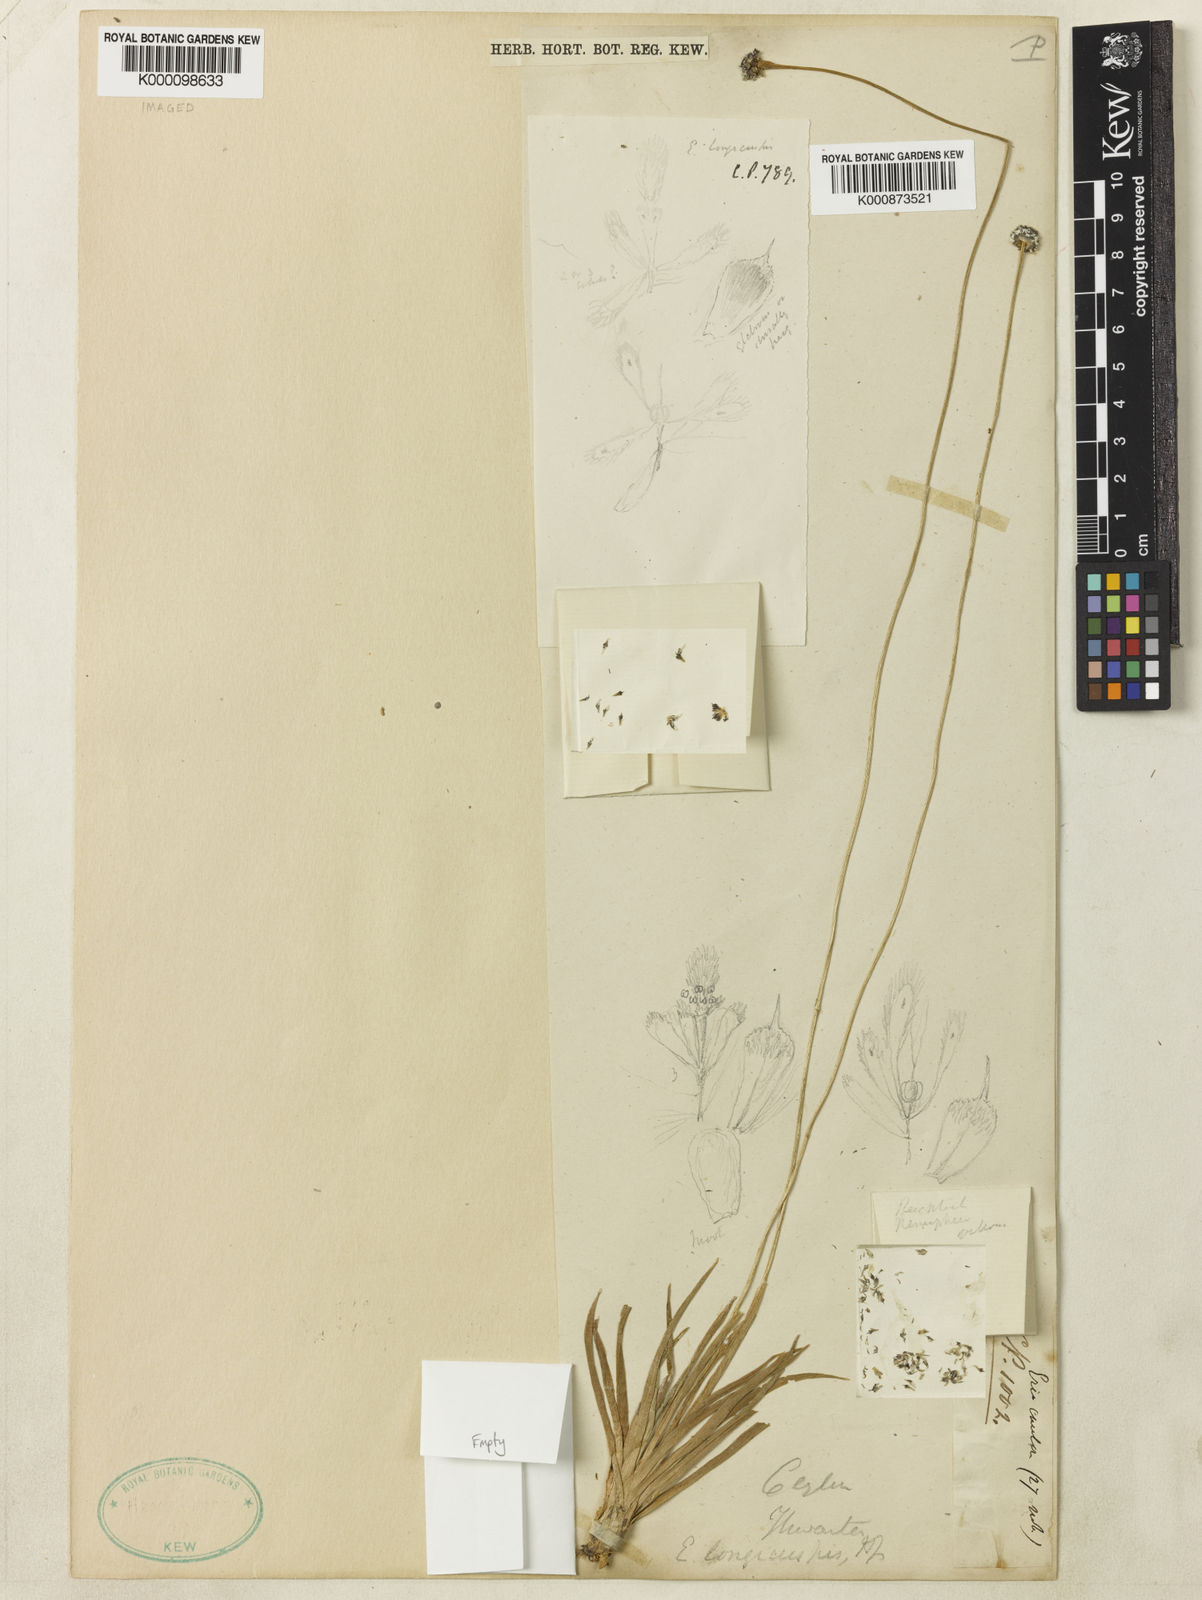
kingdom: Plantae
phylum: Tracheophyta
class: Liliopsida
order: Poales
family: Eriocaulaceae
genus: Eriocaulon
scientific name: Eriocaulon longicuspe
